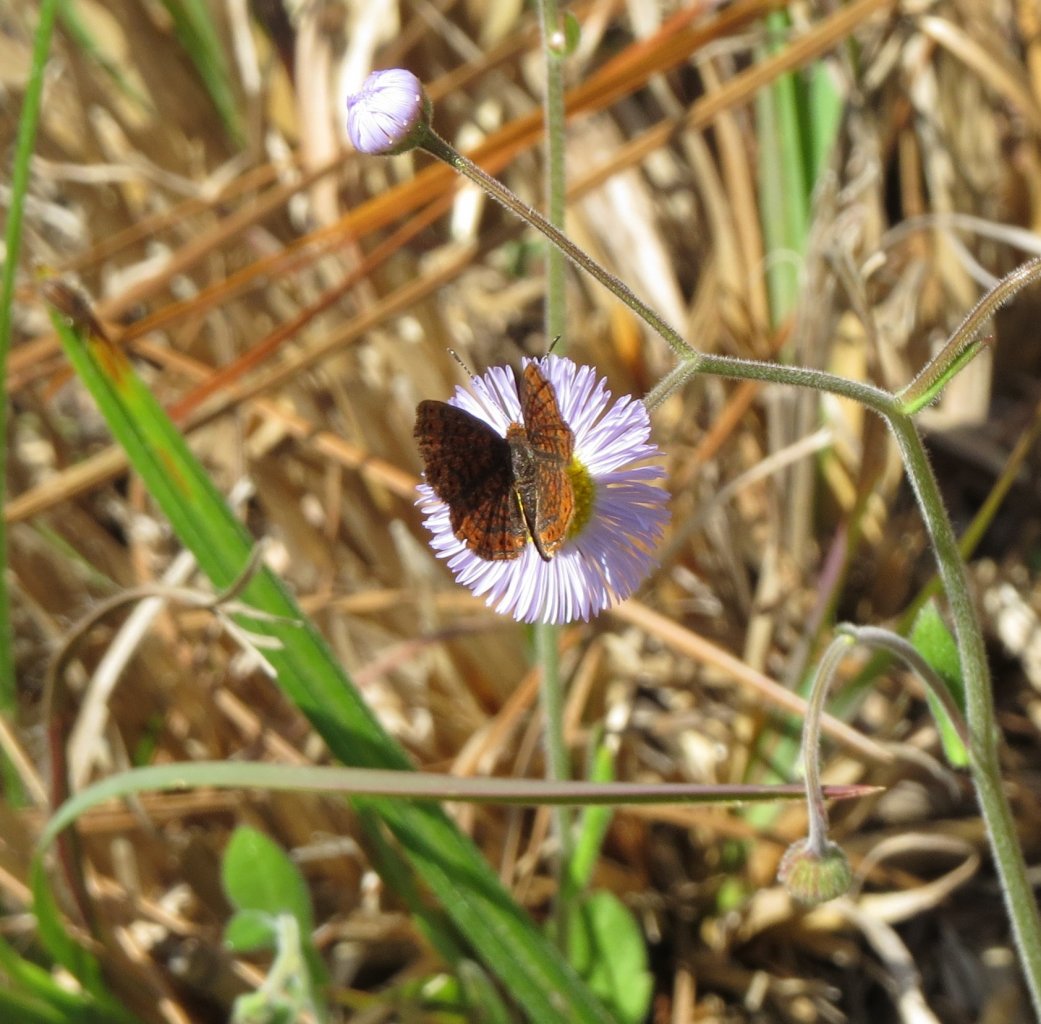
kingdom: Animalia
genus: Calephelis
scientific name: Calephelis virginiensis
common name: Little Metalmark
